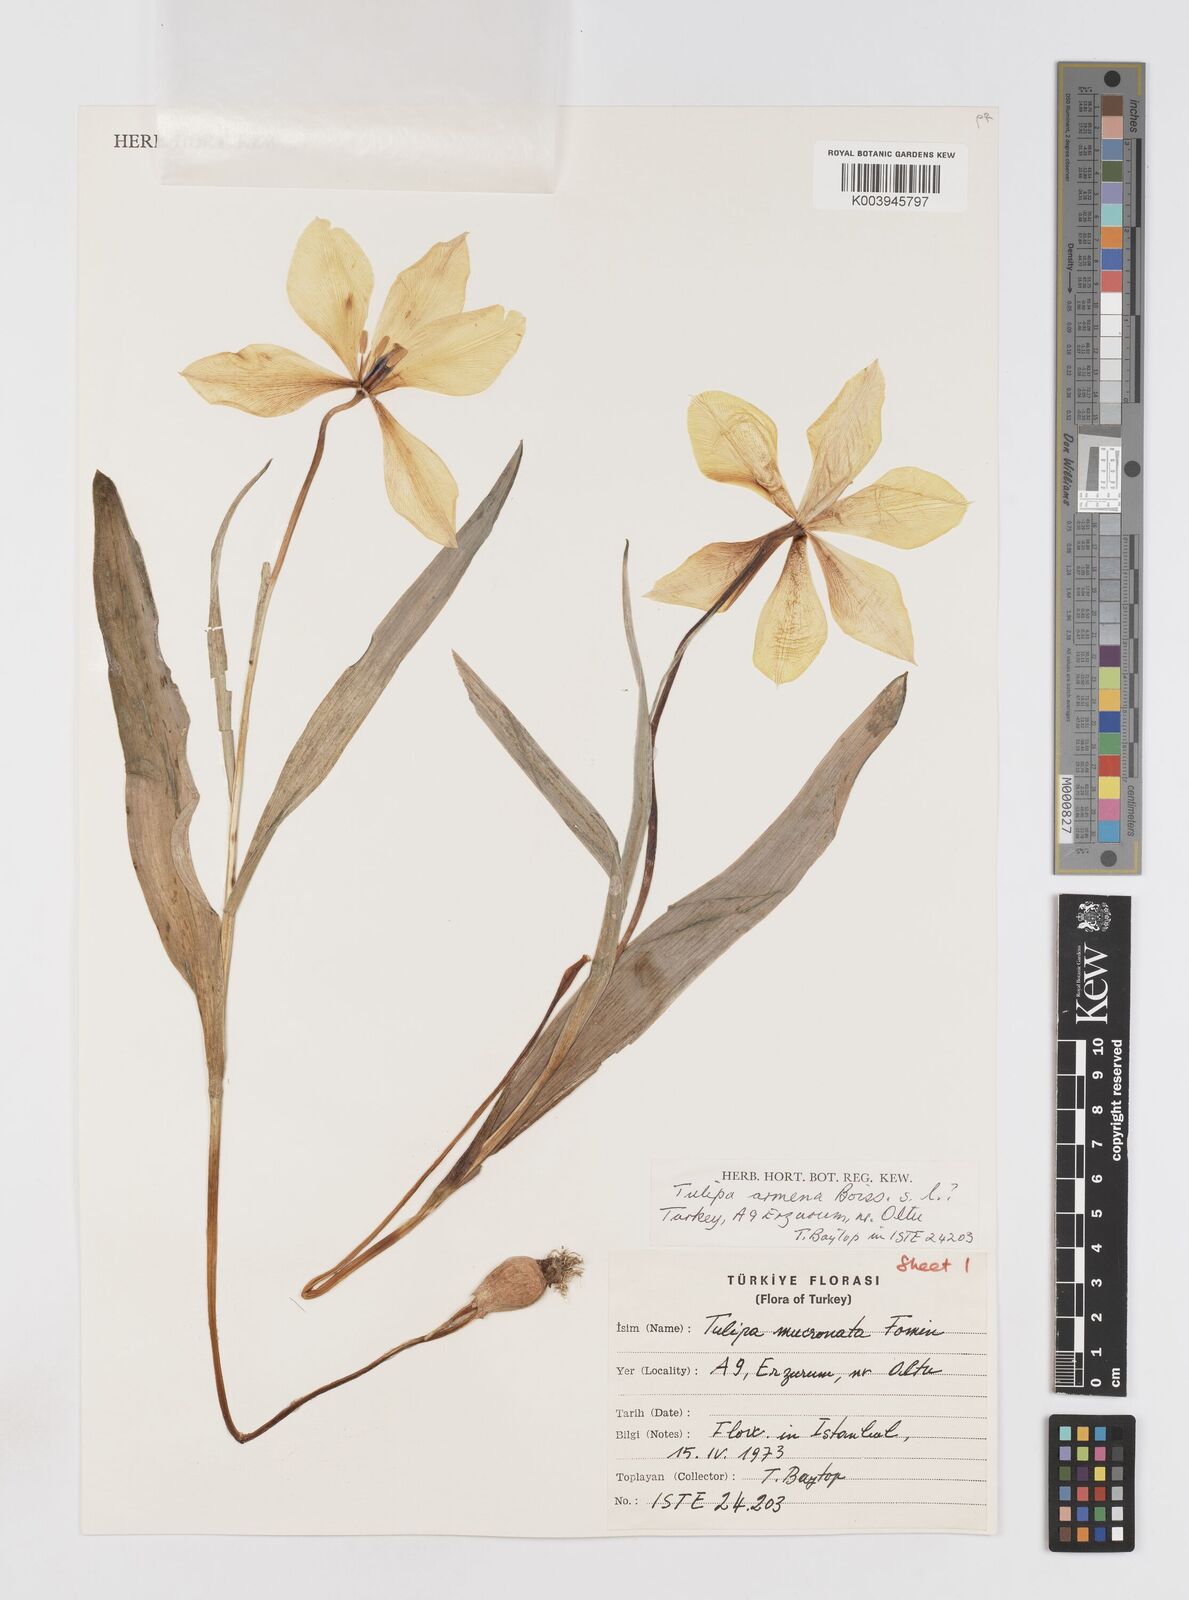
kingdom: Plantae
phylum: Tracheophyta
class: Liliopsida
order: Liliales
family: Liliaceae
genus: Tulipa
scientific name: Tulipa armena
